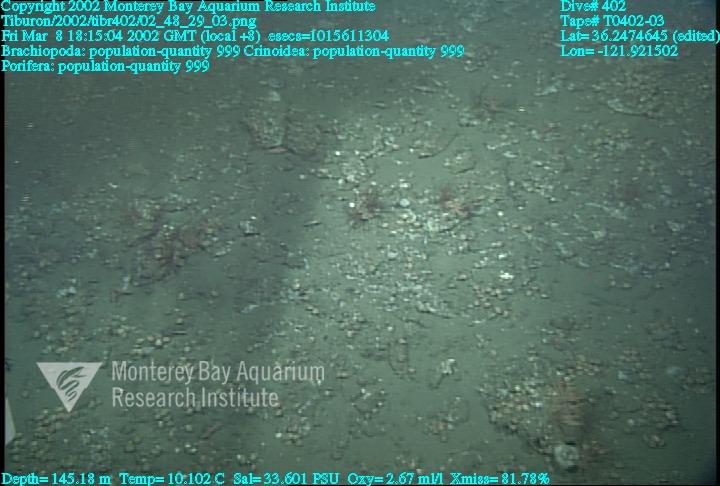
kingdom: Animalia
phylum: Porifera
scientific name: Porifera
